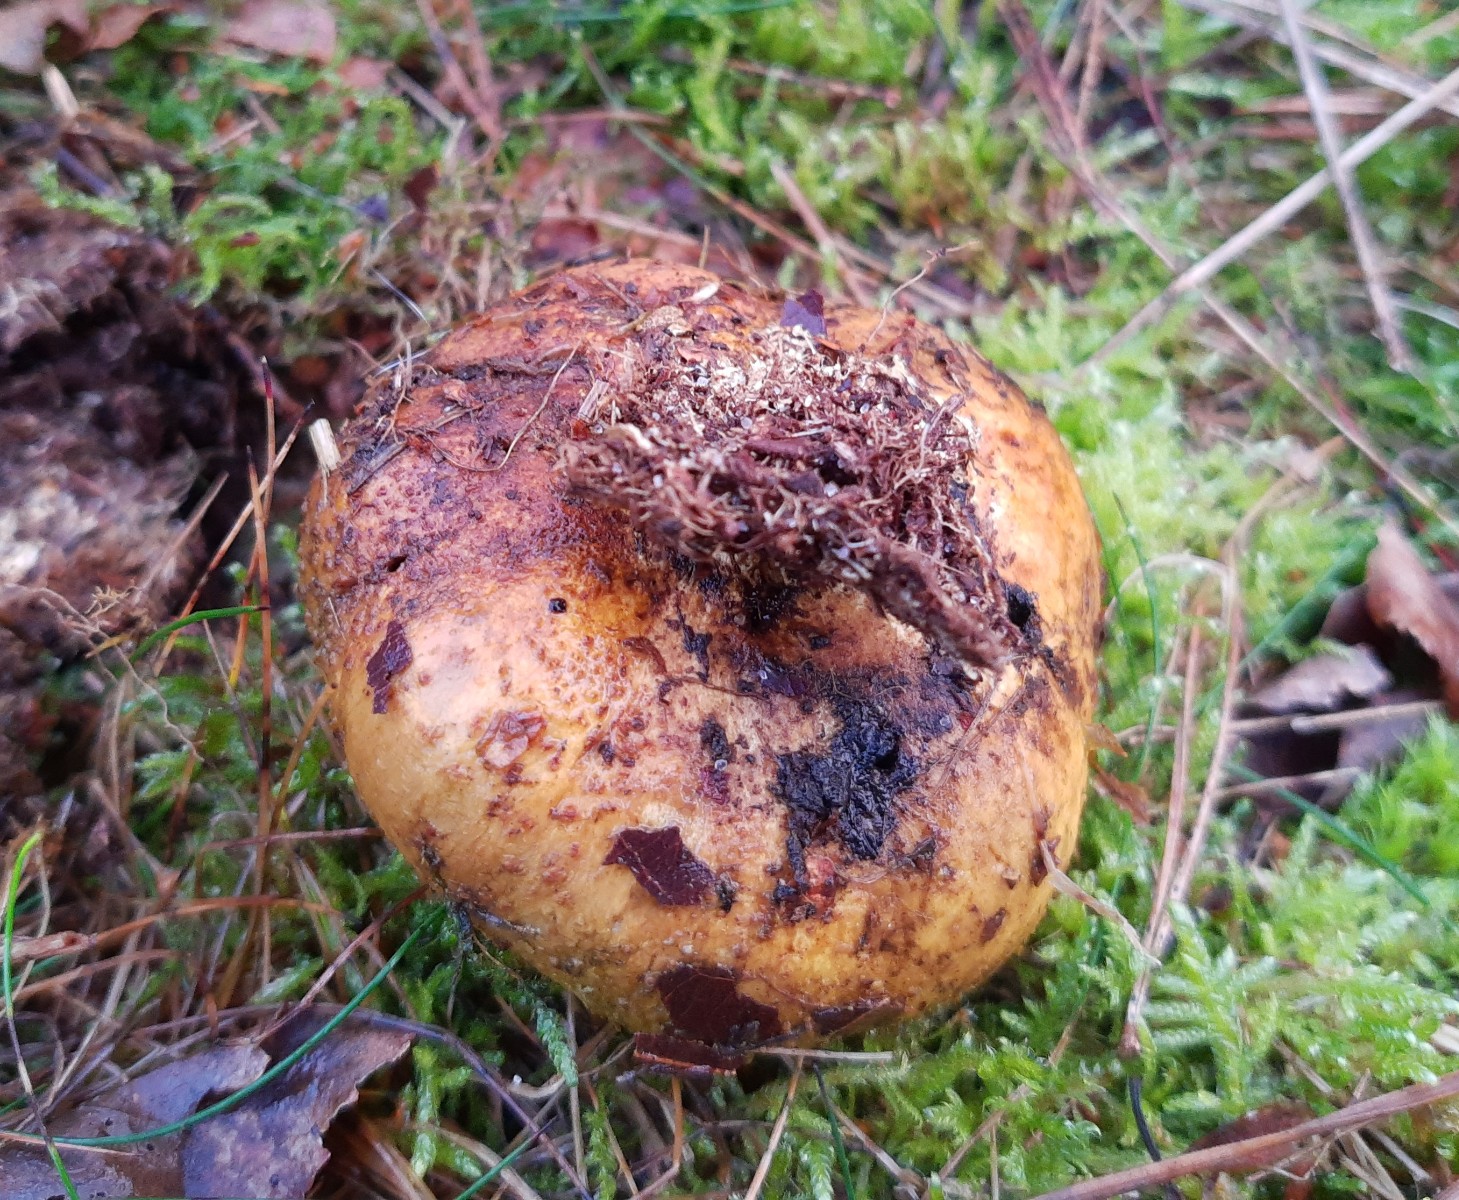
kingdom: Fungi
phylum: Basidiomycota
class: Agaricomycetes
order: Boletales
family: Sclerodermataceae
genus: Scleroderma
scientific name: Scleroderma citrinum
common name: almindelig bruskbold
